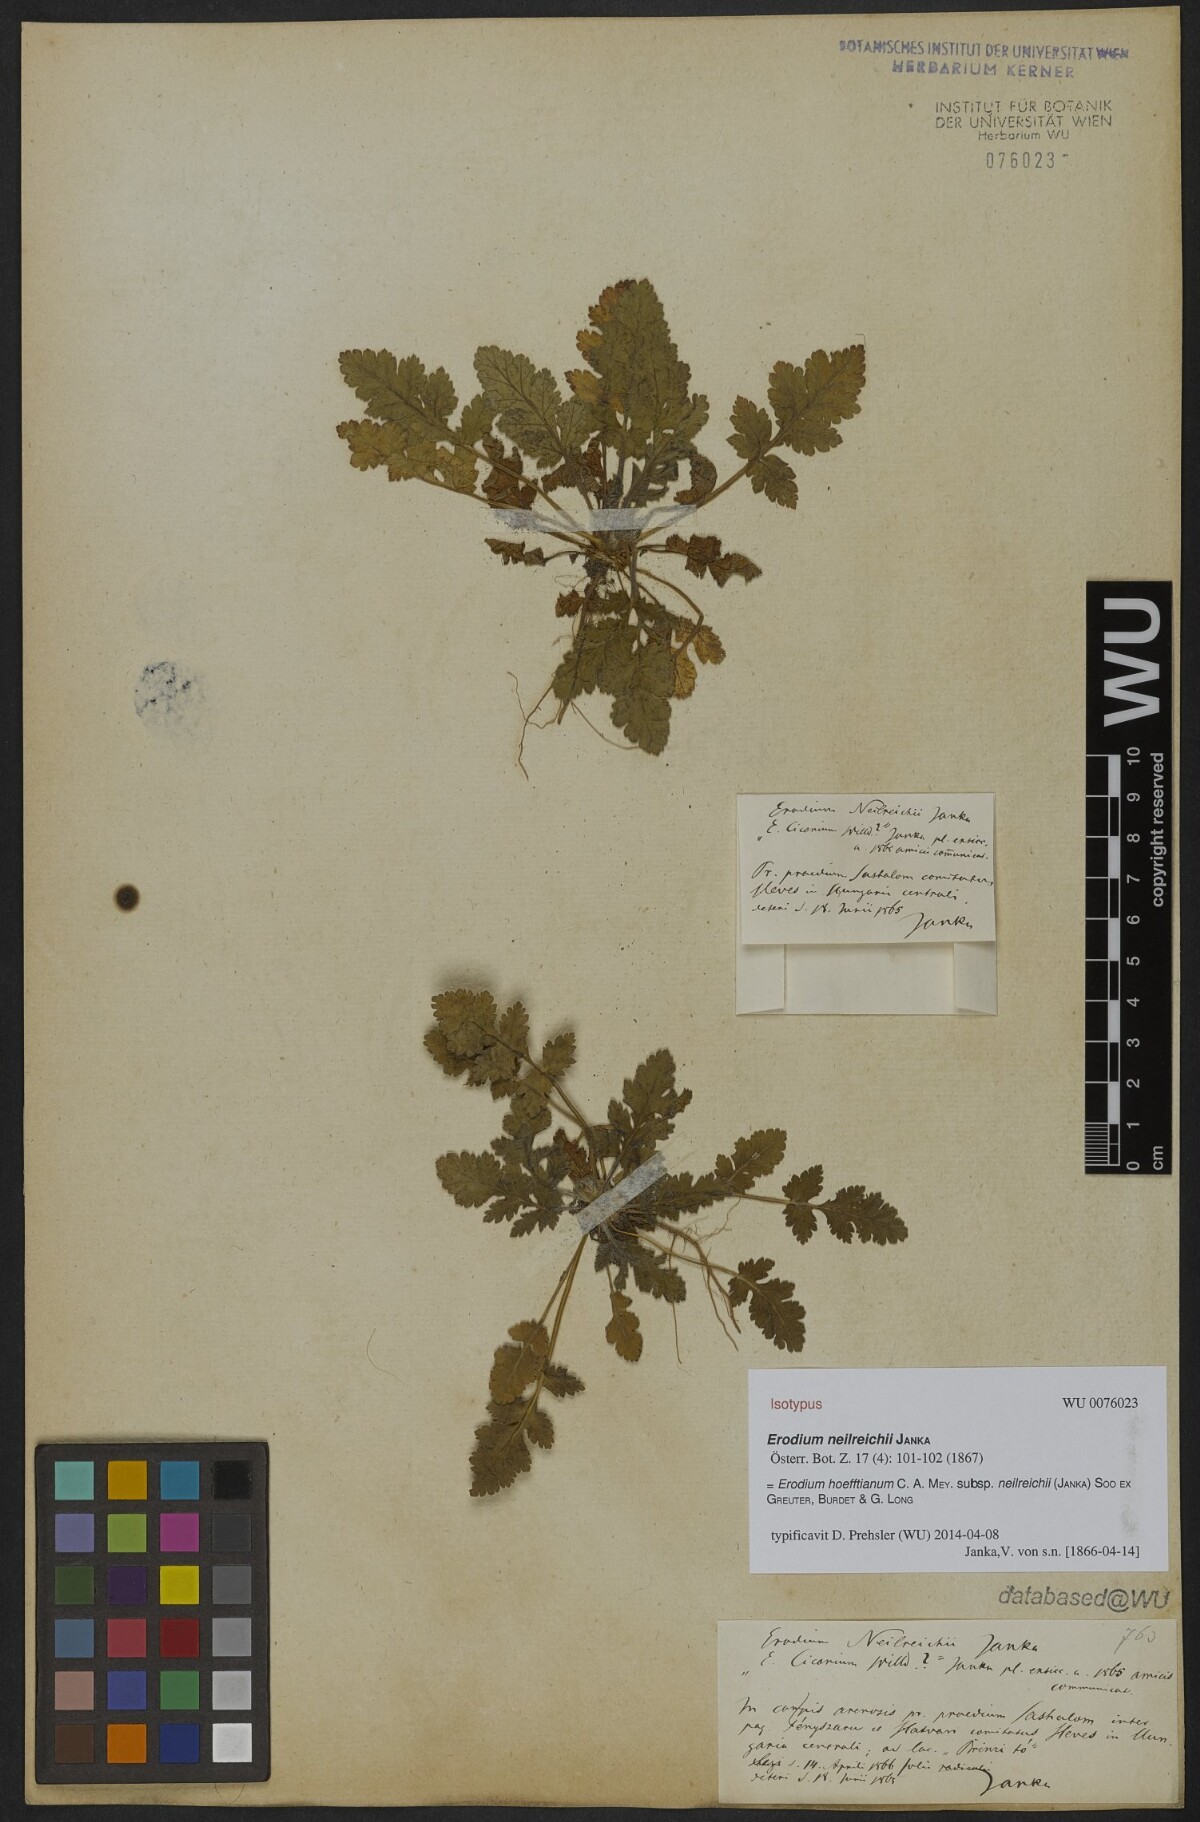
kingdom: Plantae
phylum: Tracheophyta
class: Magnoliopsida
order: Geraniales
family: Geraniaceae
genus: Erodium
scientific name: Erodium hoefftianum
